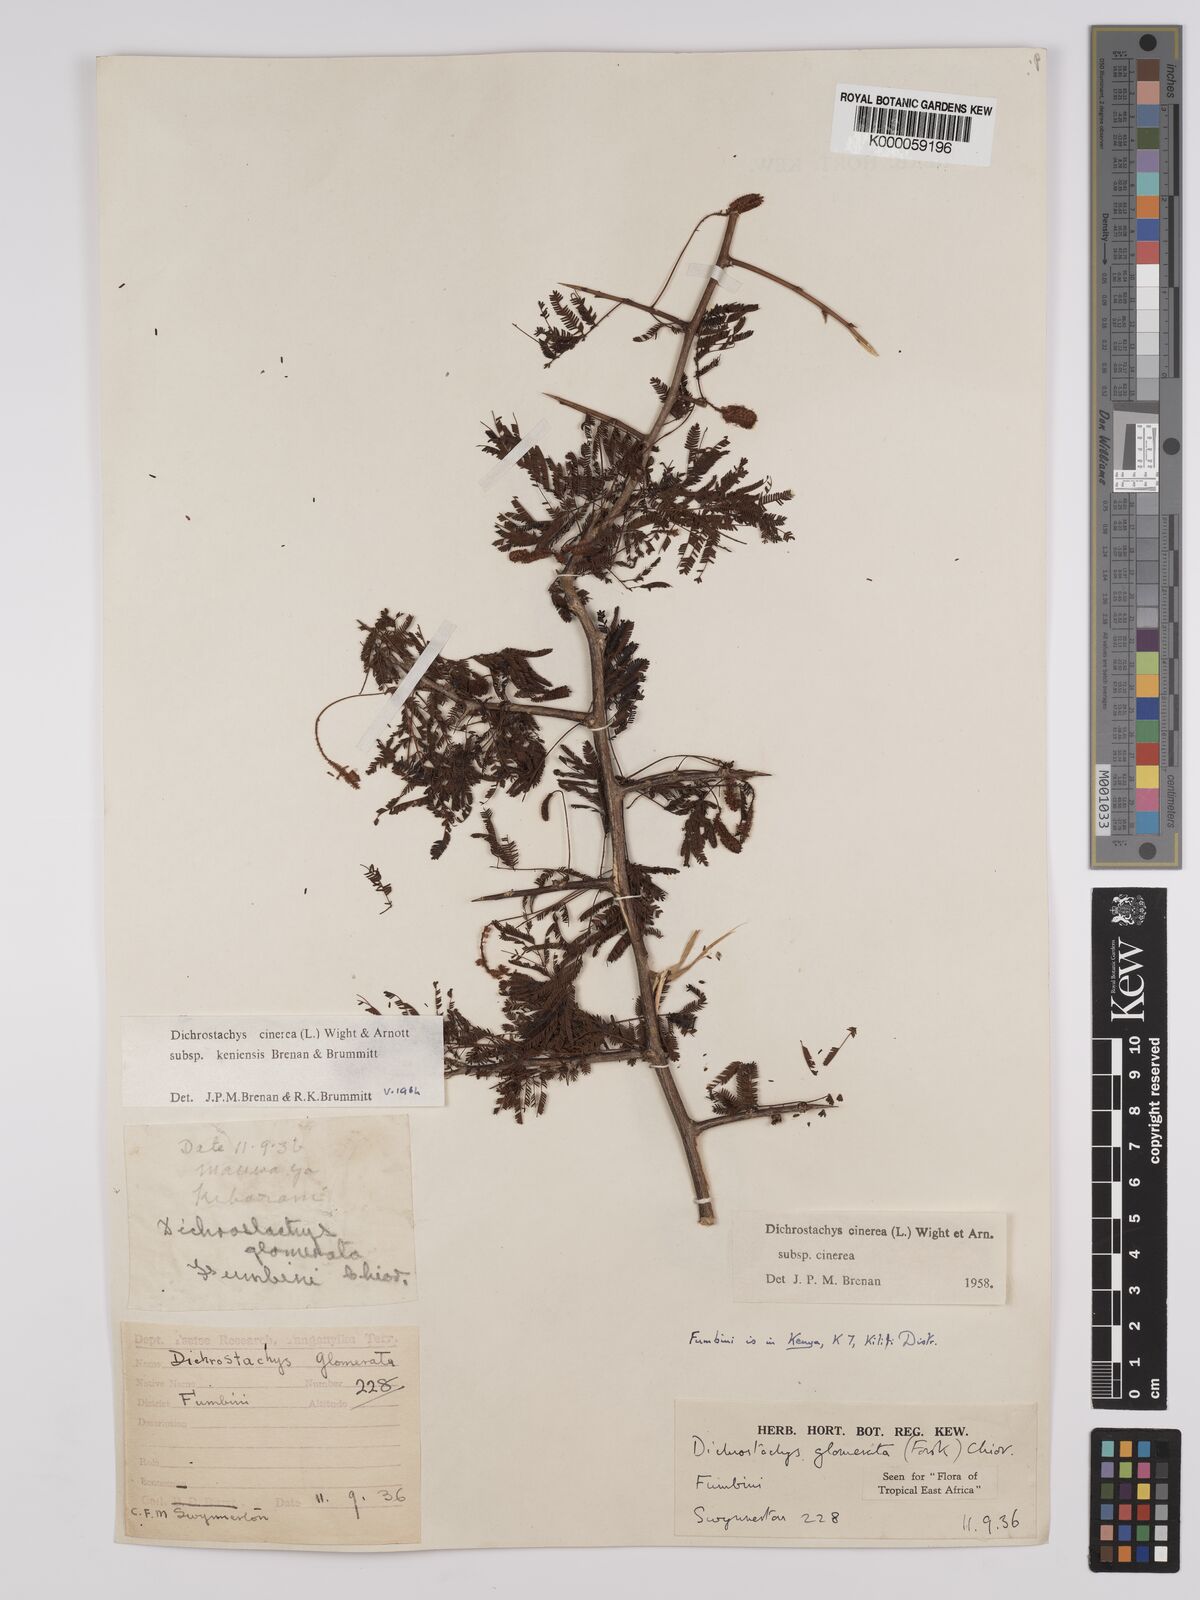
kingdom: Plantae
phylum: Tracheophyta
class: Magnoliopsida
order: Fabales
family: Fabaceae
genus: Dichrostachys
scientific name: Dichrostachys cinerea
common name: Sicklebush
